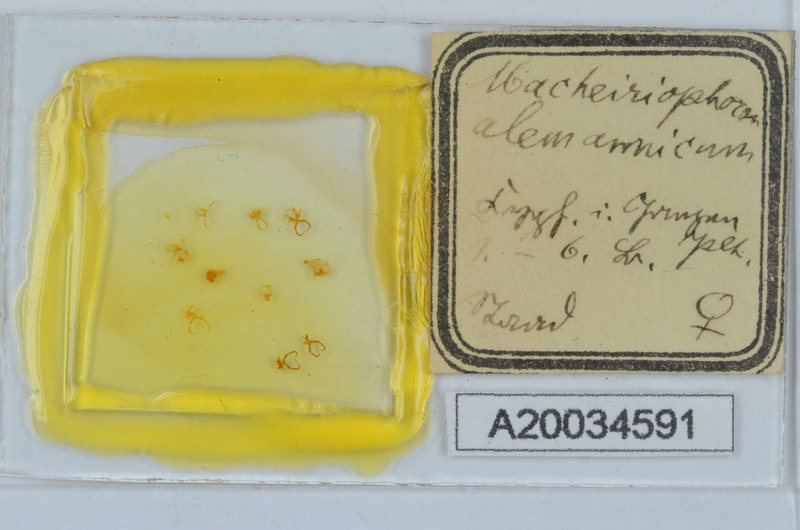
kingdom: Animalia
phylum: Arthropoda
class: Diplopoda
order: Chordeumatida
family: Craspedosomatidae
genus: Macheiriophoron
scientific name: Macheiriophoron alemannicum
